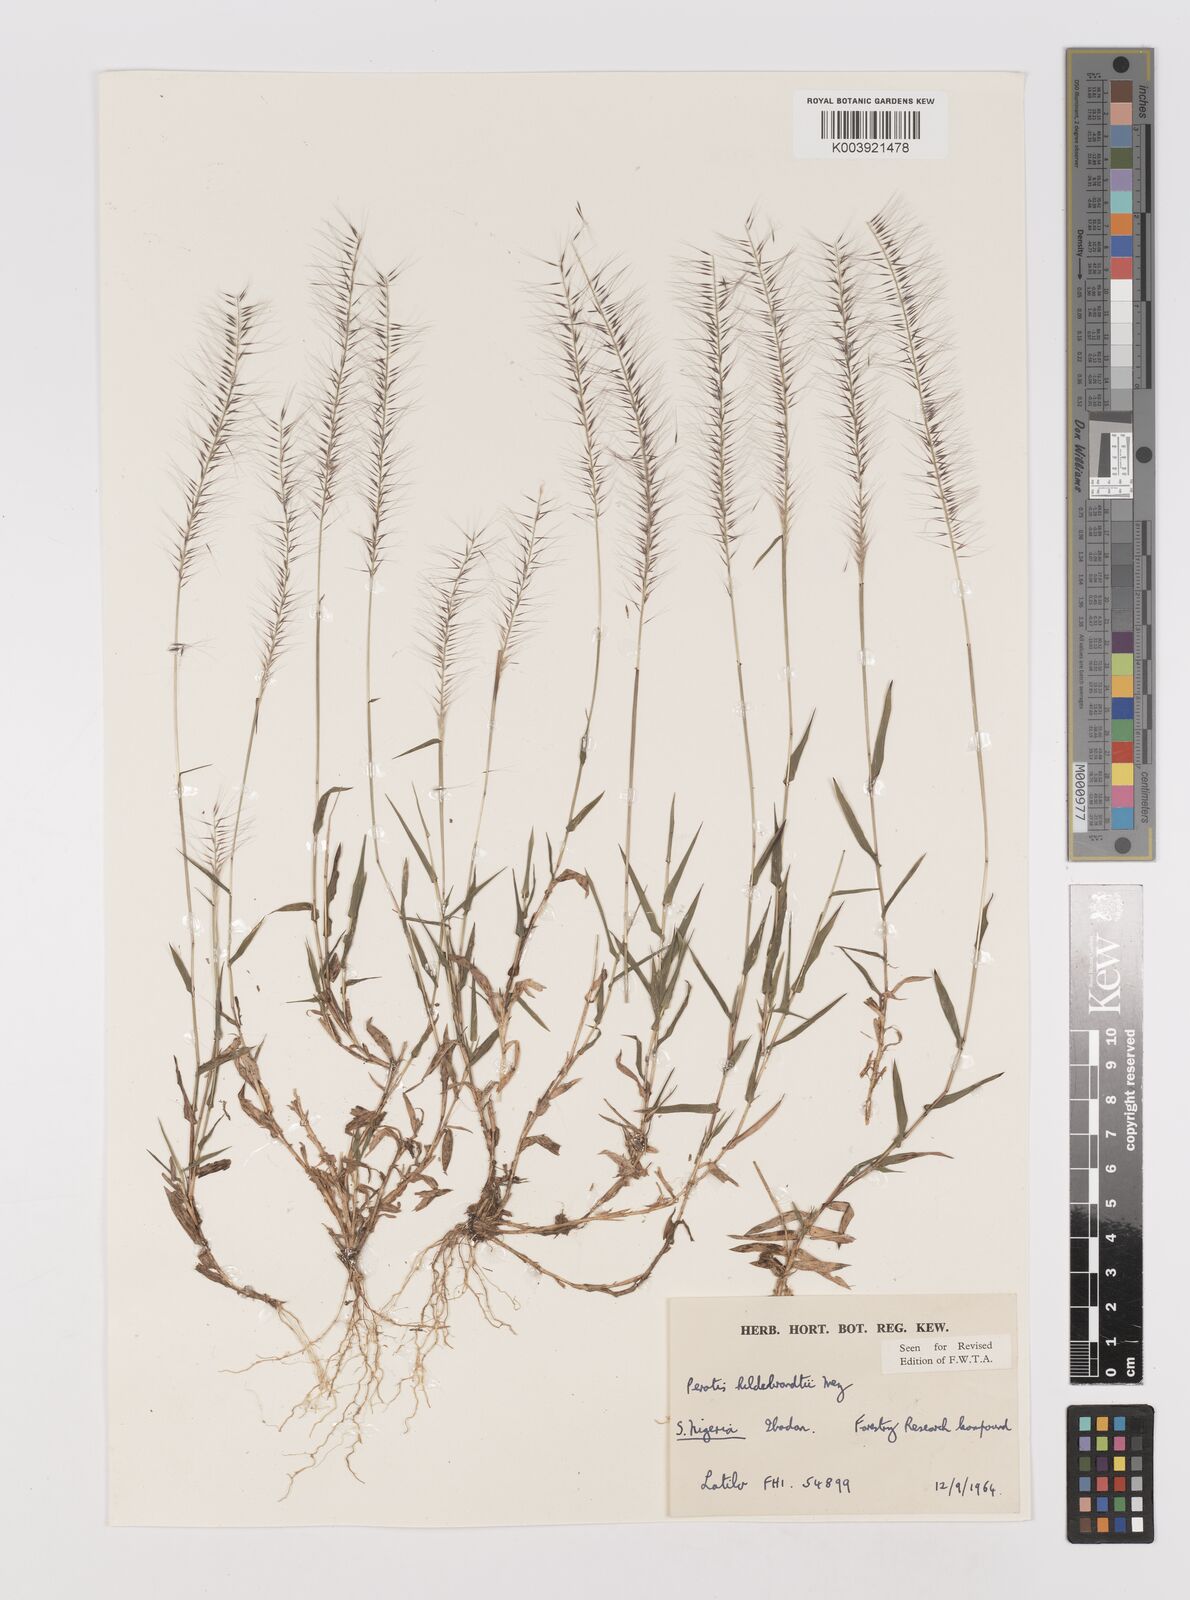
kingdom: Plantae
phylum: Tracheophyta
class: Liliopsida
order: Poales
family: Poaceae
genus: Perotis
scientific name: Perotis hildebrandtii
